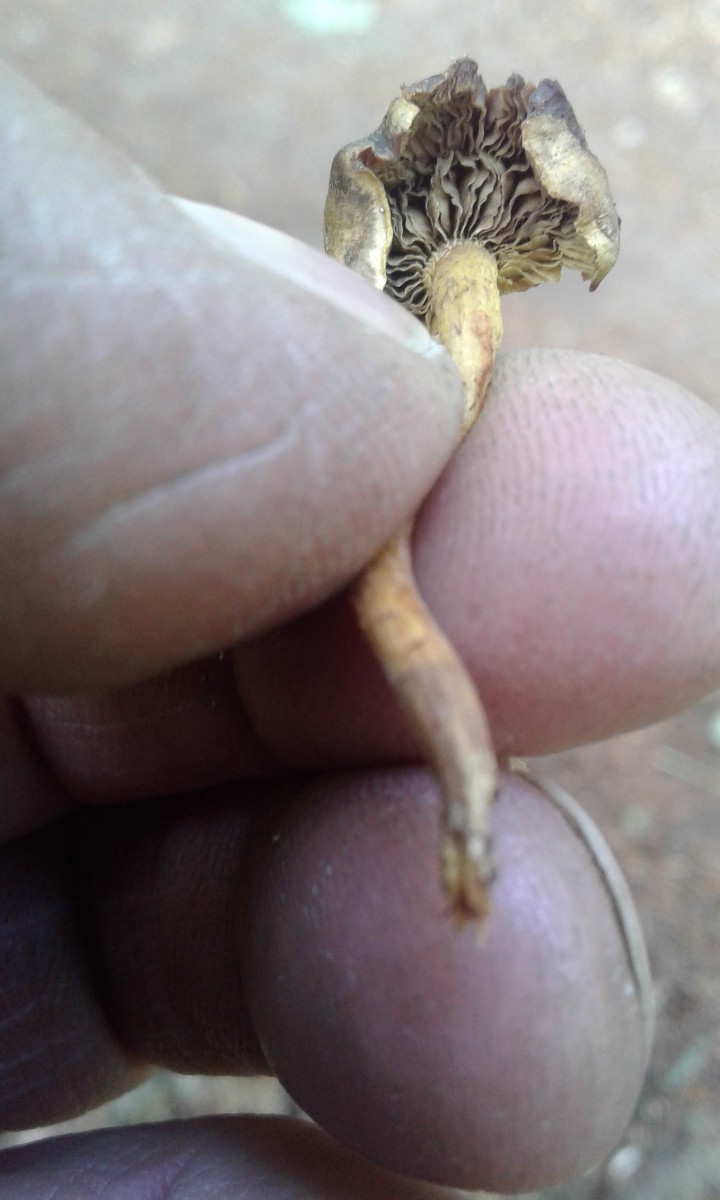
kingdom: Fungi
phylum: Basidiomycota
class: Agaricomycetes
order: Agaricales
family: Strophariaceae
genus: Hypholoma
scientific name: Hypholoma
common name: svovlhat
